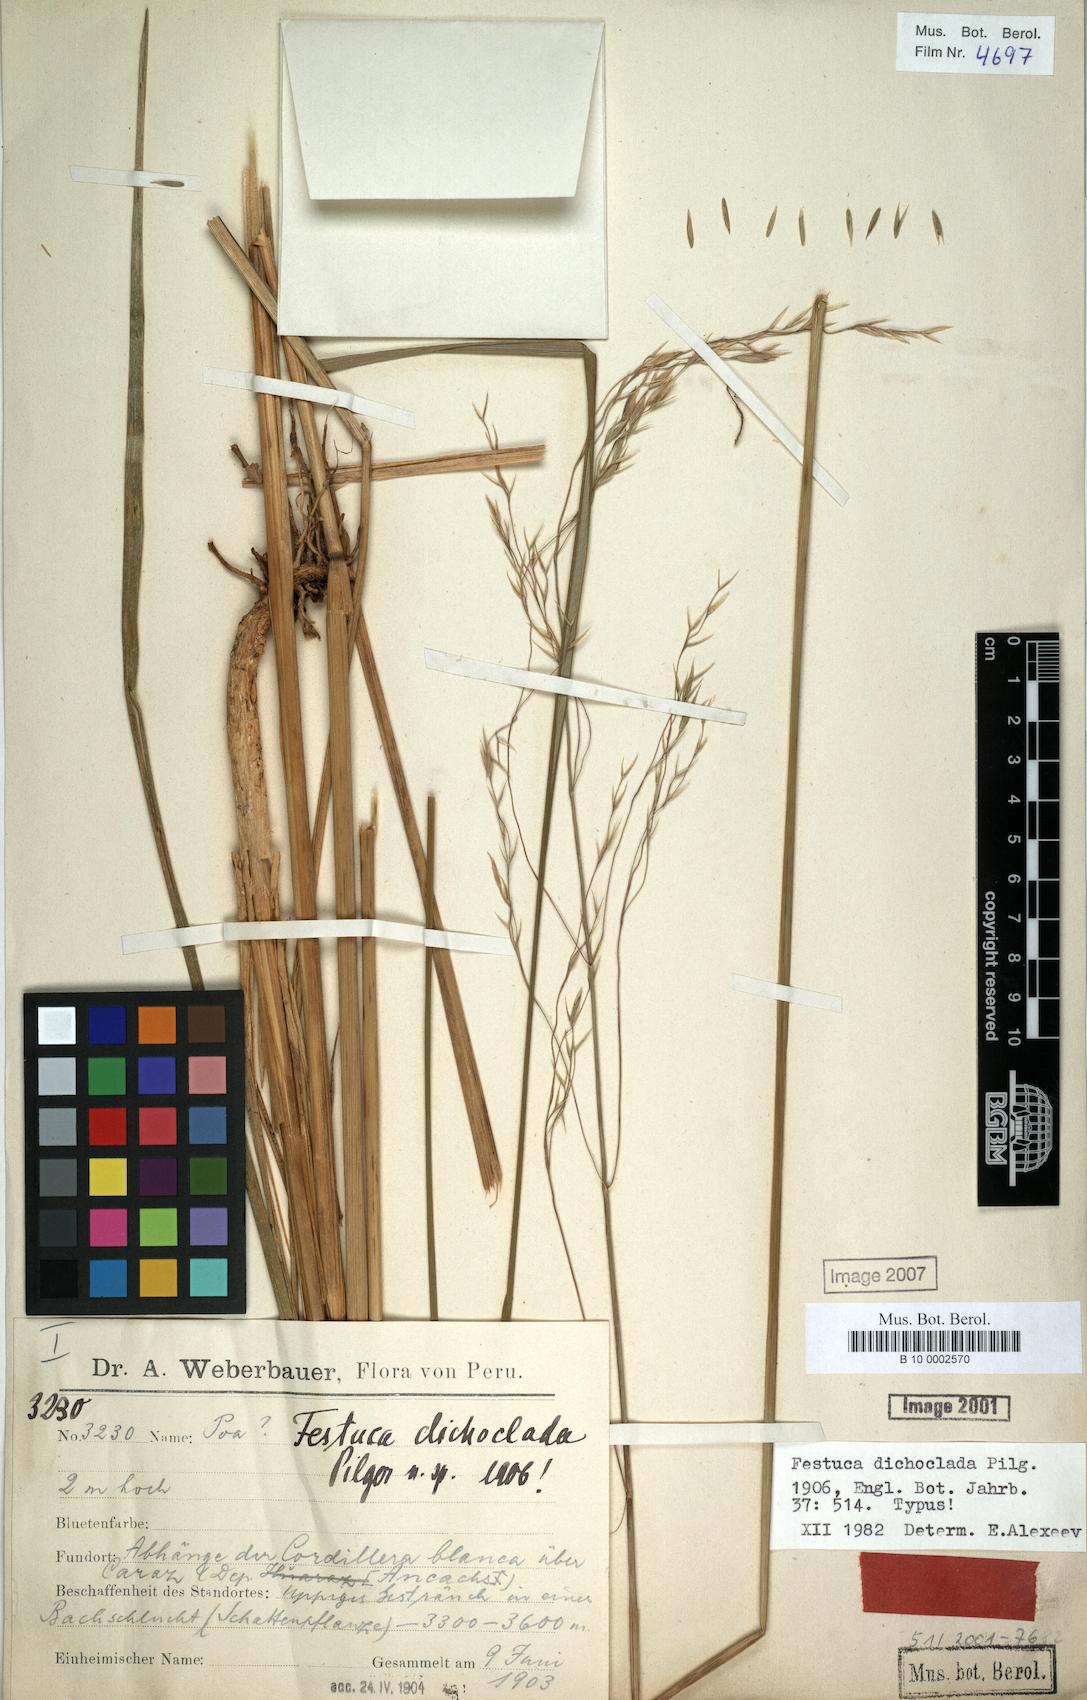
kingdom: Plantae
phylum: Tracheophyta
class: Liliopsida
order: Poales
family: Poaceae
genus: Festuca
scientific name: Festuca dichoclada
